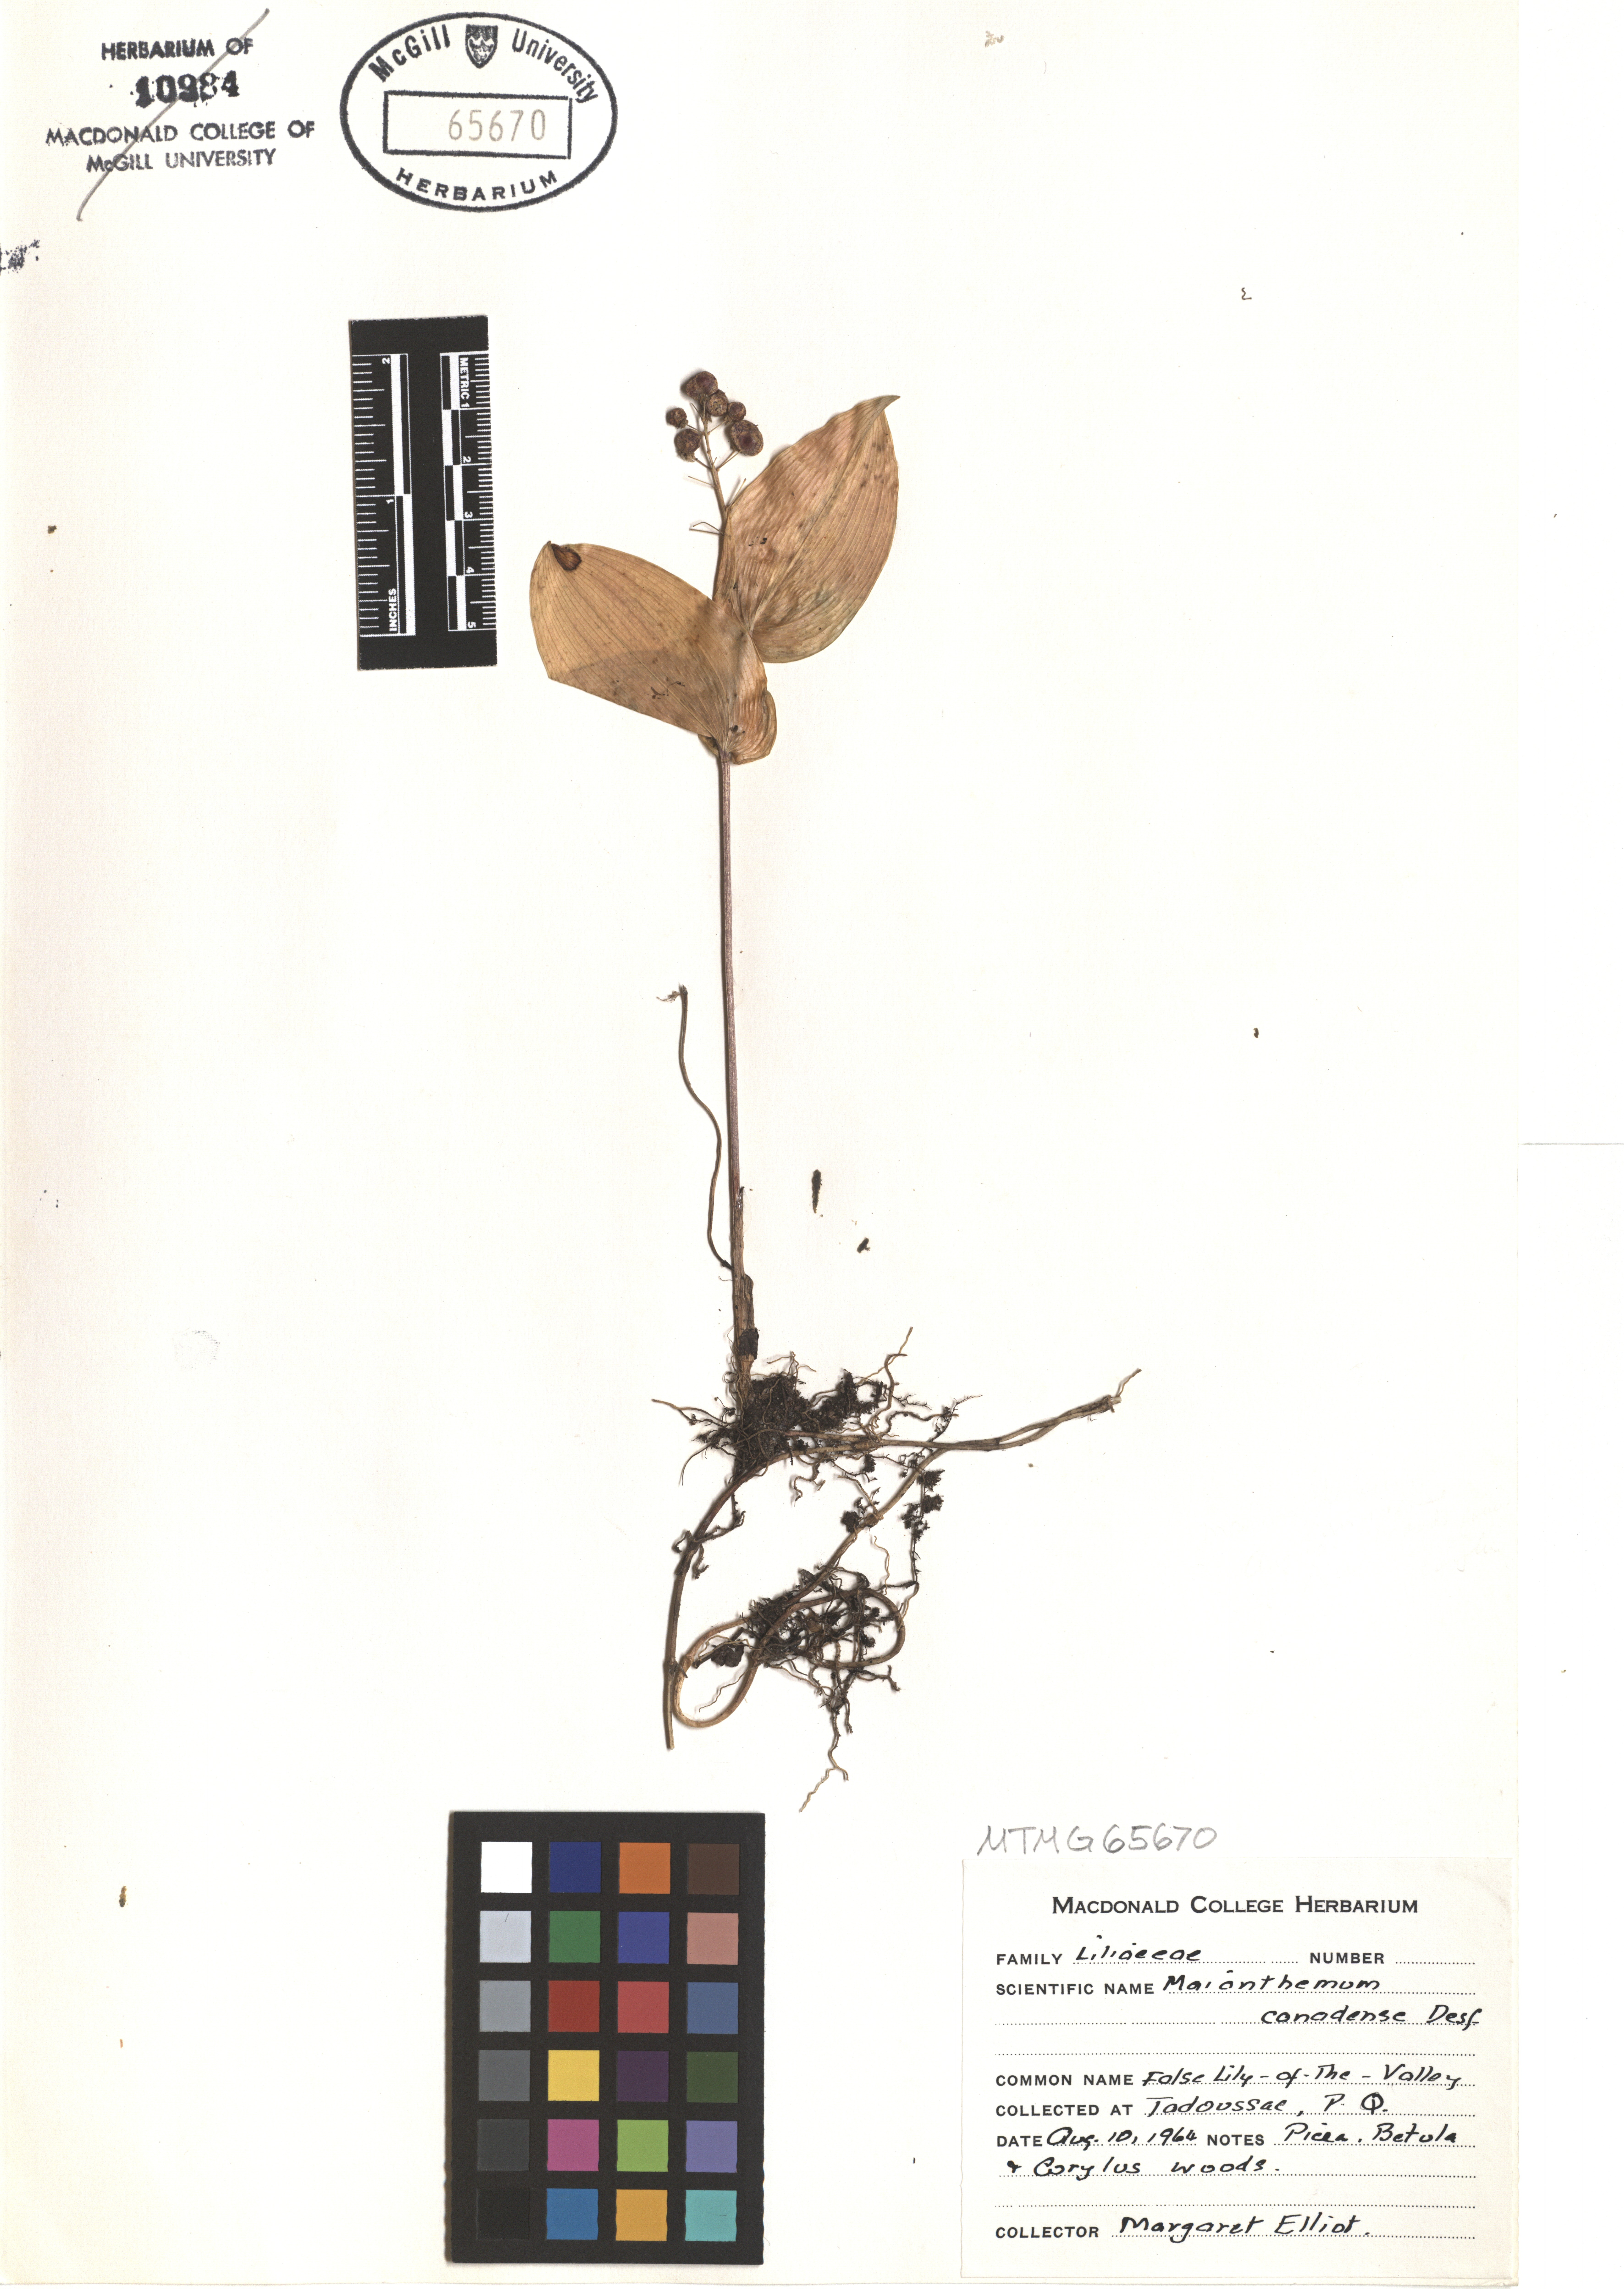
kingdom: Plantae
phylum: Tracheophyta
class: Liliopsida
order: Asparagales
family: Asparagaceae
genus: Maianthemum
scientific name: Maianthemum canadense
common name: False lily-of-the-valley
